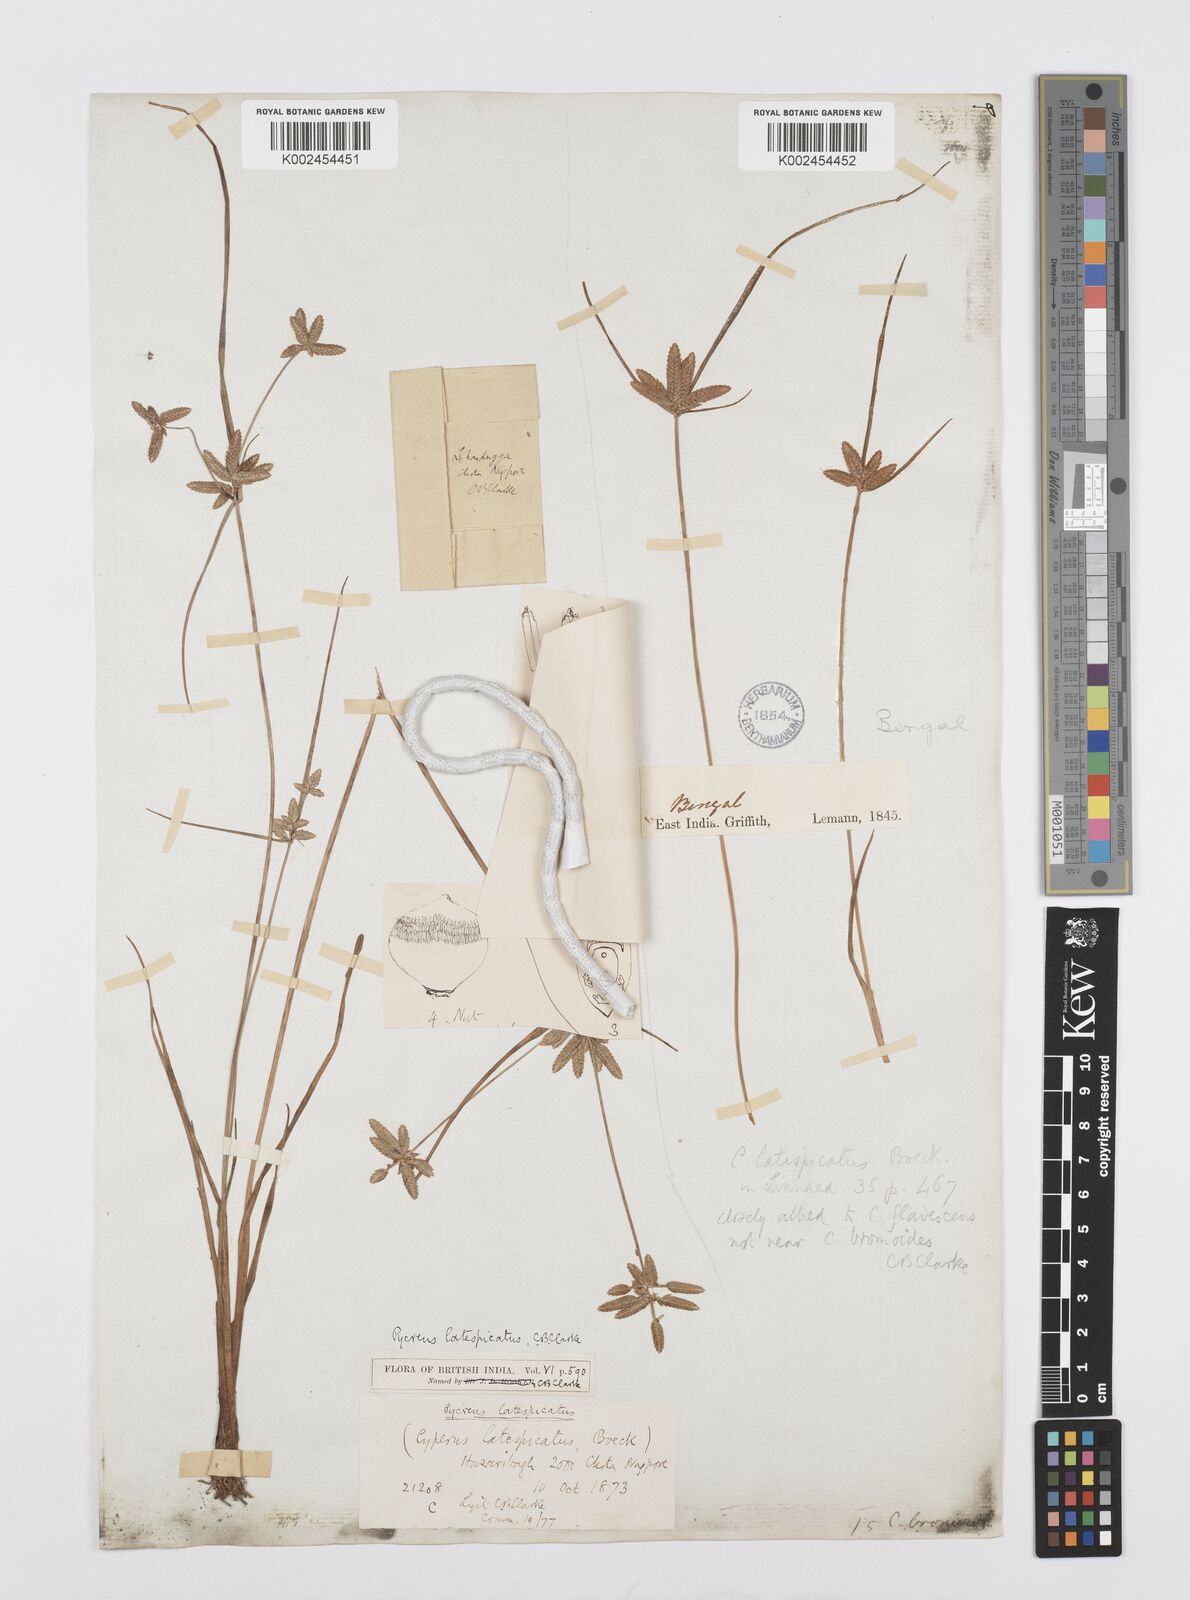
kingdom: Plantae
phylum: Tracheophyta
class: Liliopsida
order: Poales
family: Cyperaceae
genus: Cyperus
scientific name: Cyperus diaphanus
